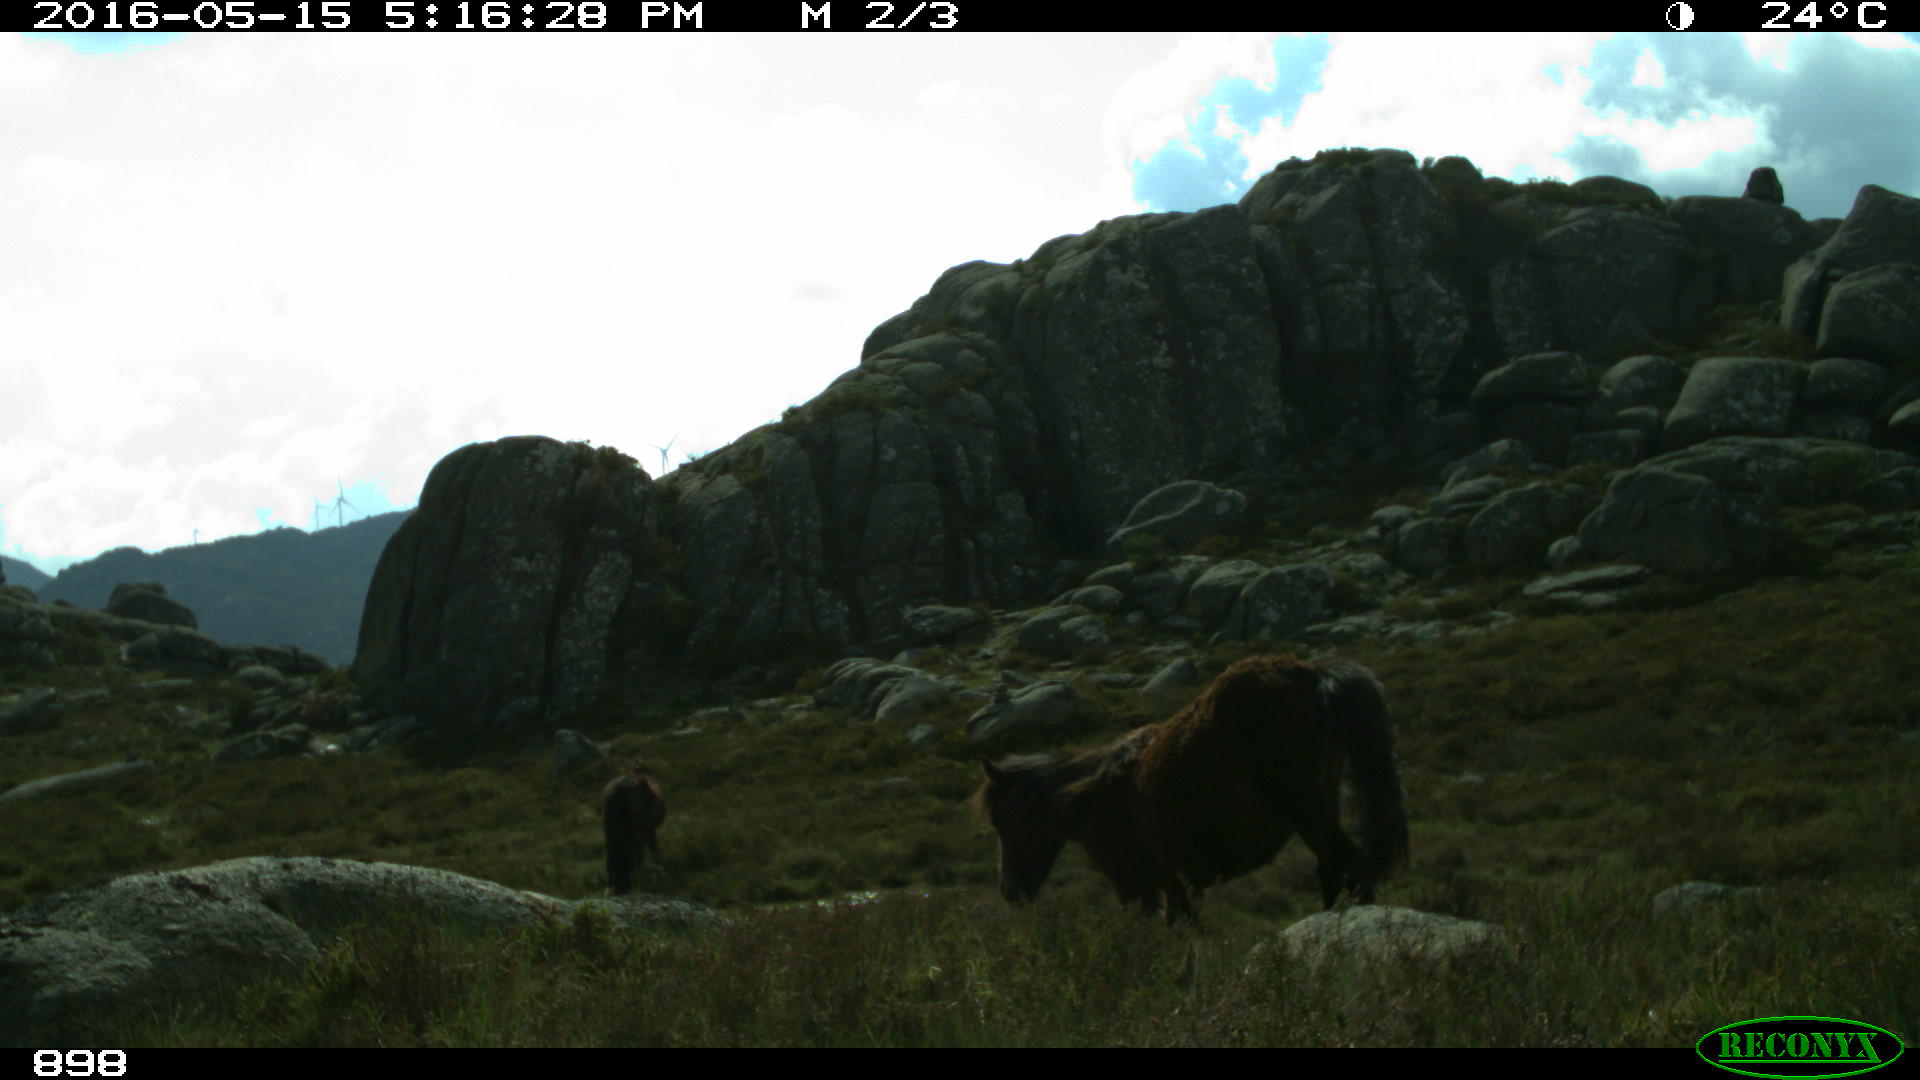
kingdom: Animalia
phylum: Chordata
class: Mammalia
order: Perissodactyla
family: Equidae
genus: Equus
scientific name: Equus caballus
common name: Horse
